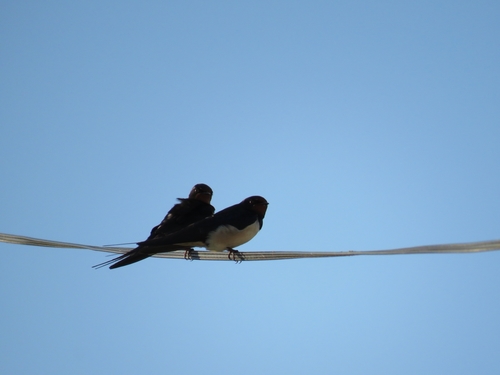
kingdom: Animalia
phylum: Chordata
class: Aves
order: Passeriformes
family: Hirundinidae
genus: Hirundo
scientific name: Hirundo rustica
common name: Barn swallow
